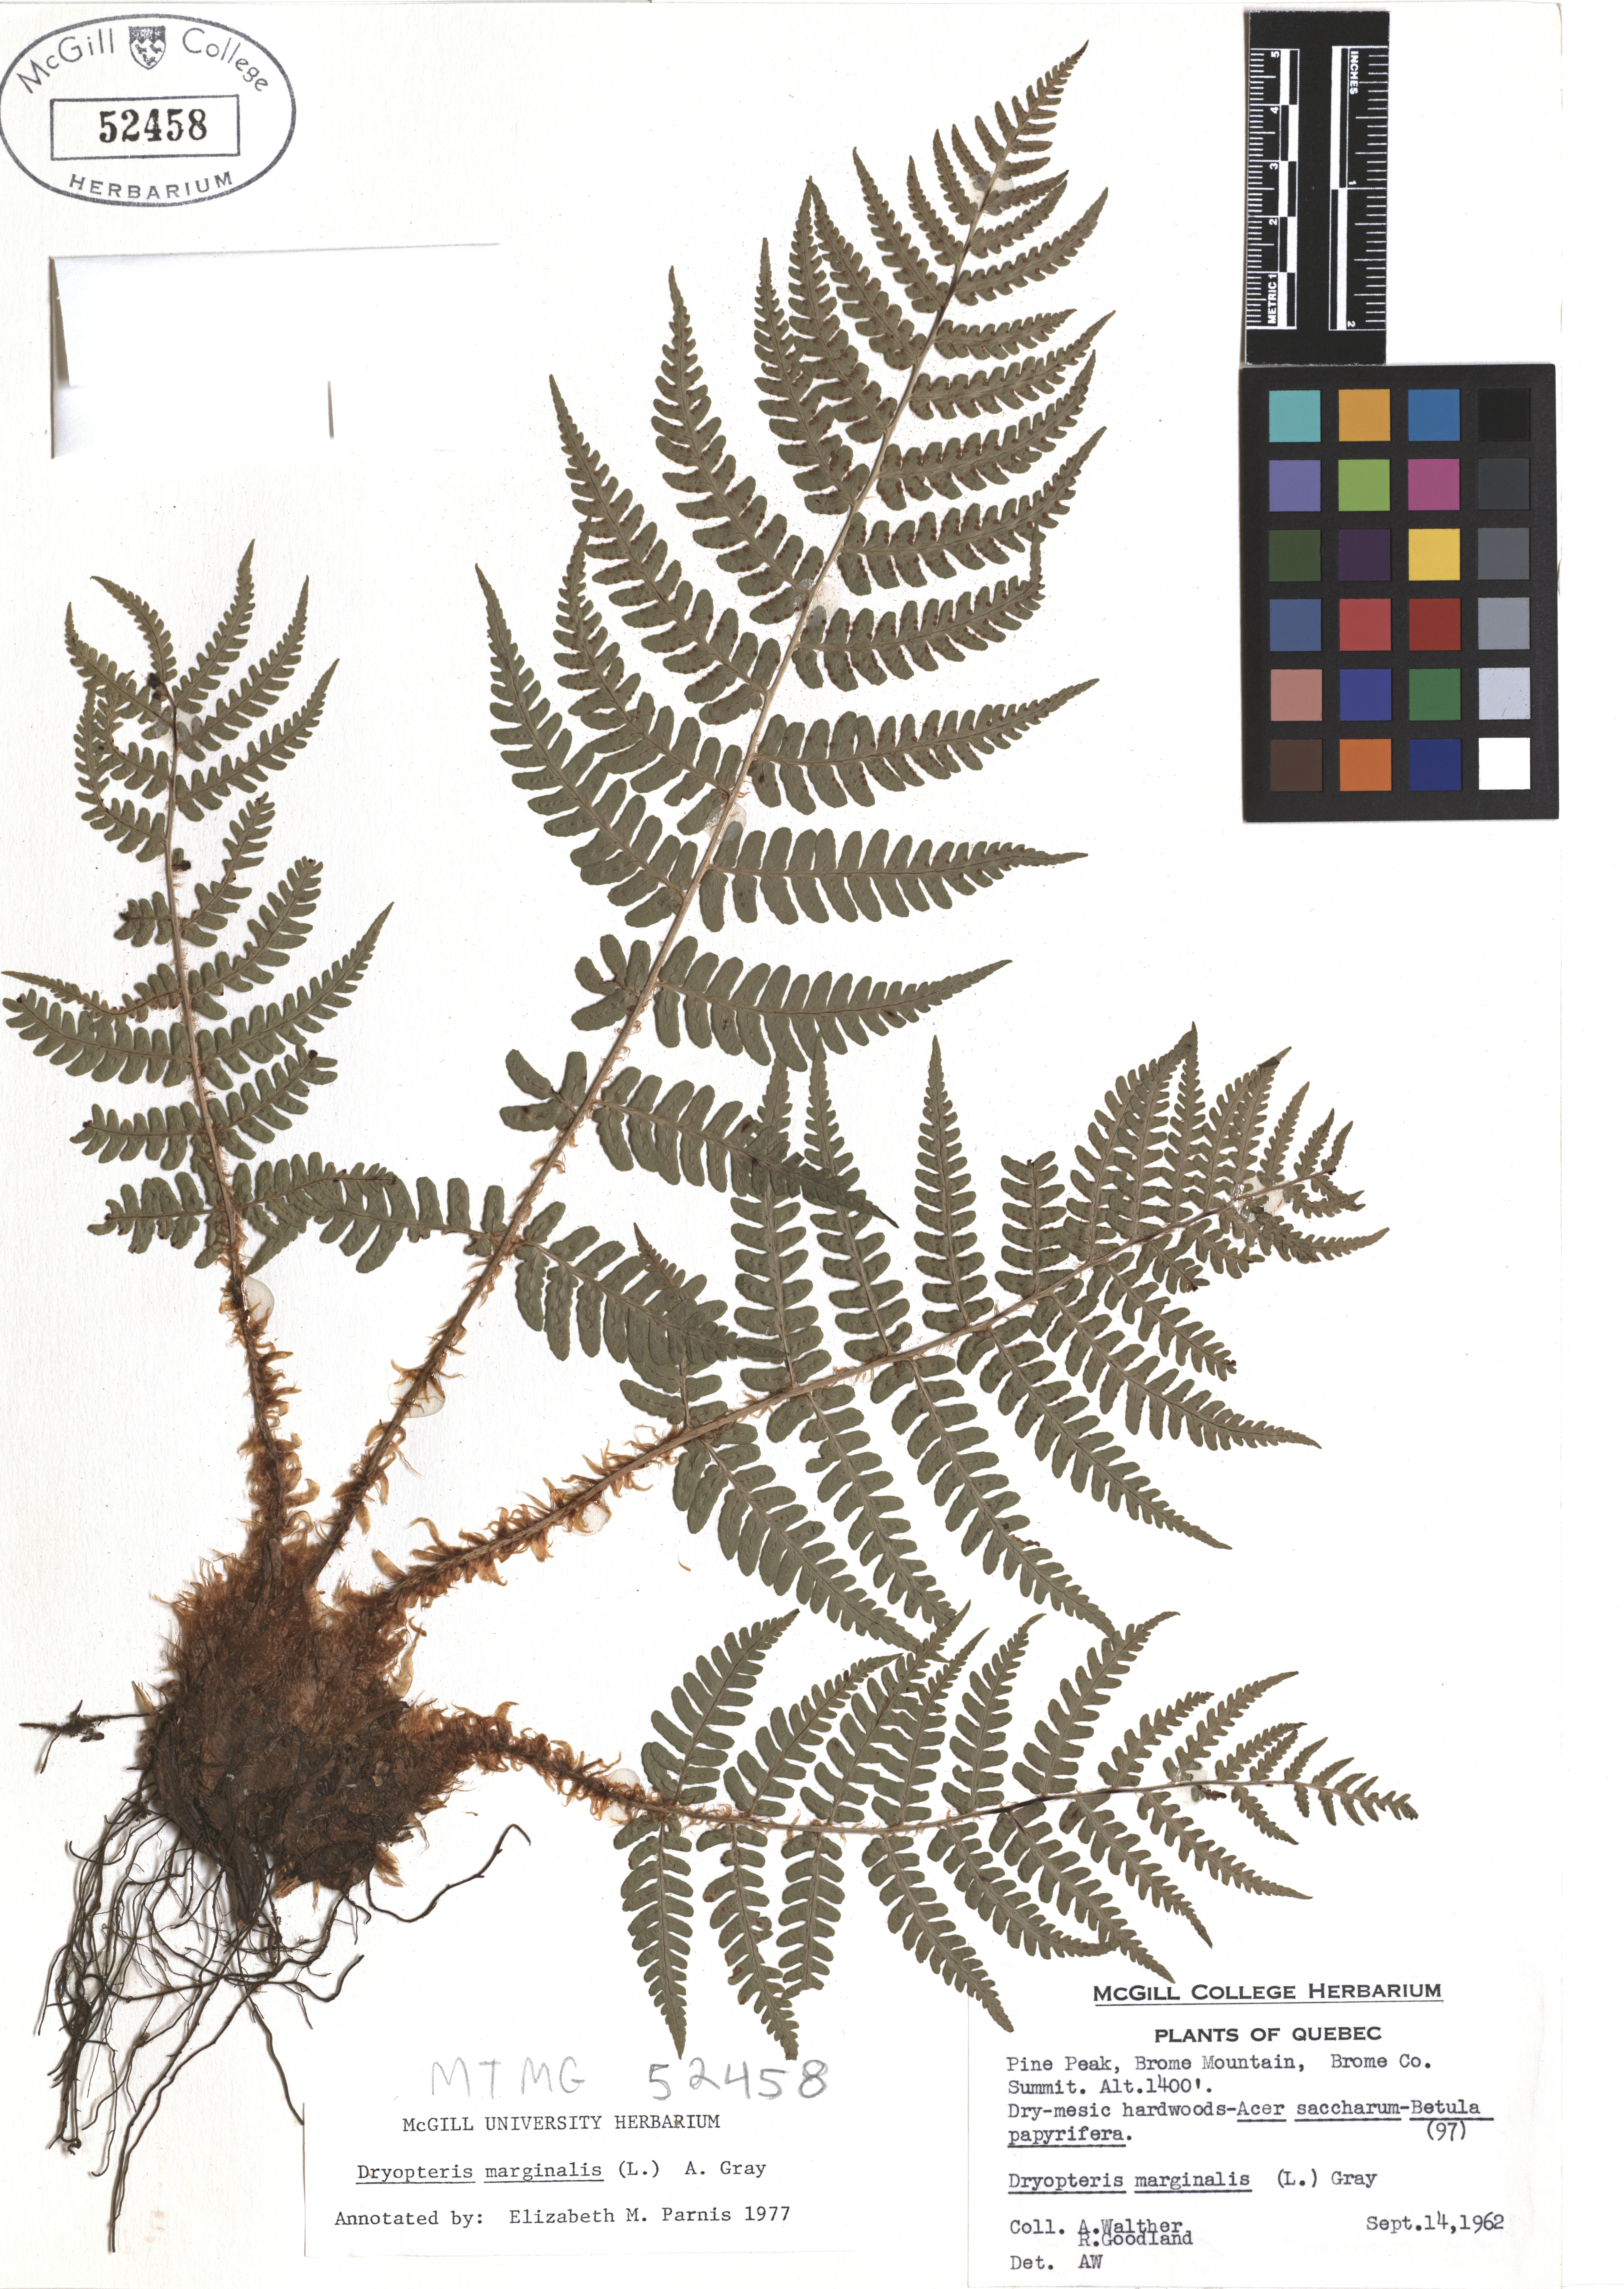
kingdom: Plantae
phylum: Tracheophyta
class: Polypodiopsida
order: Polypodiales
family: Dryopteridaceae
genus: Dryopteris
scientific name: Dryopteris marginalis
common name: Marginal wood fern
